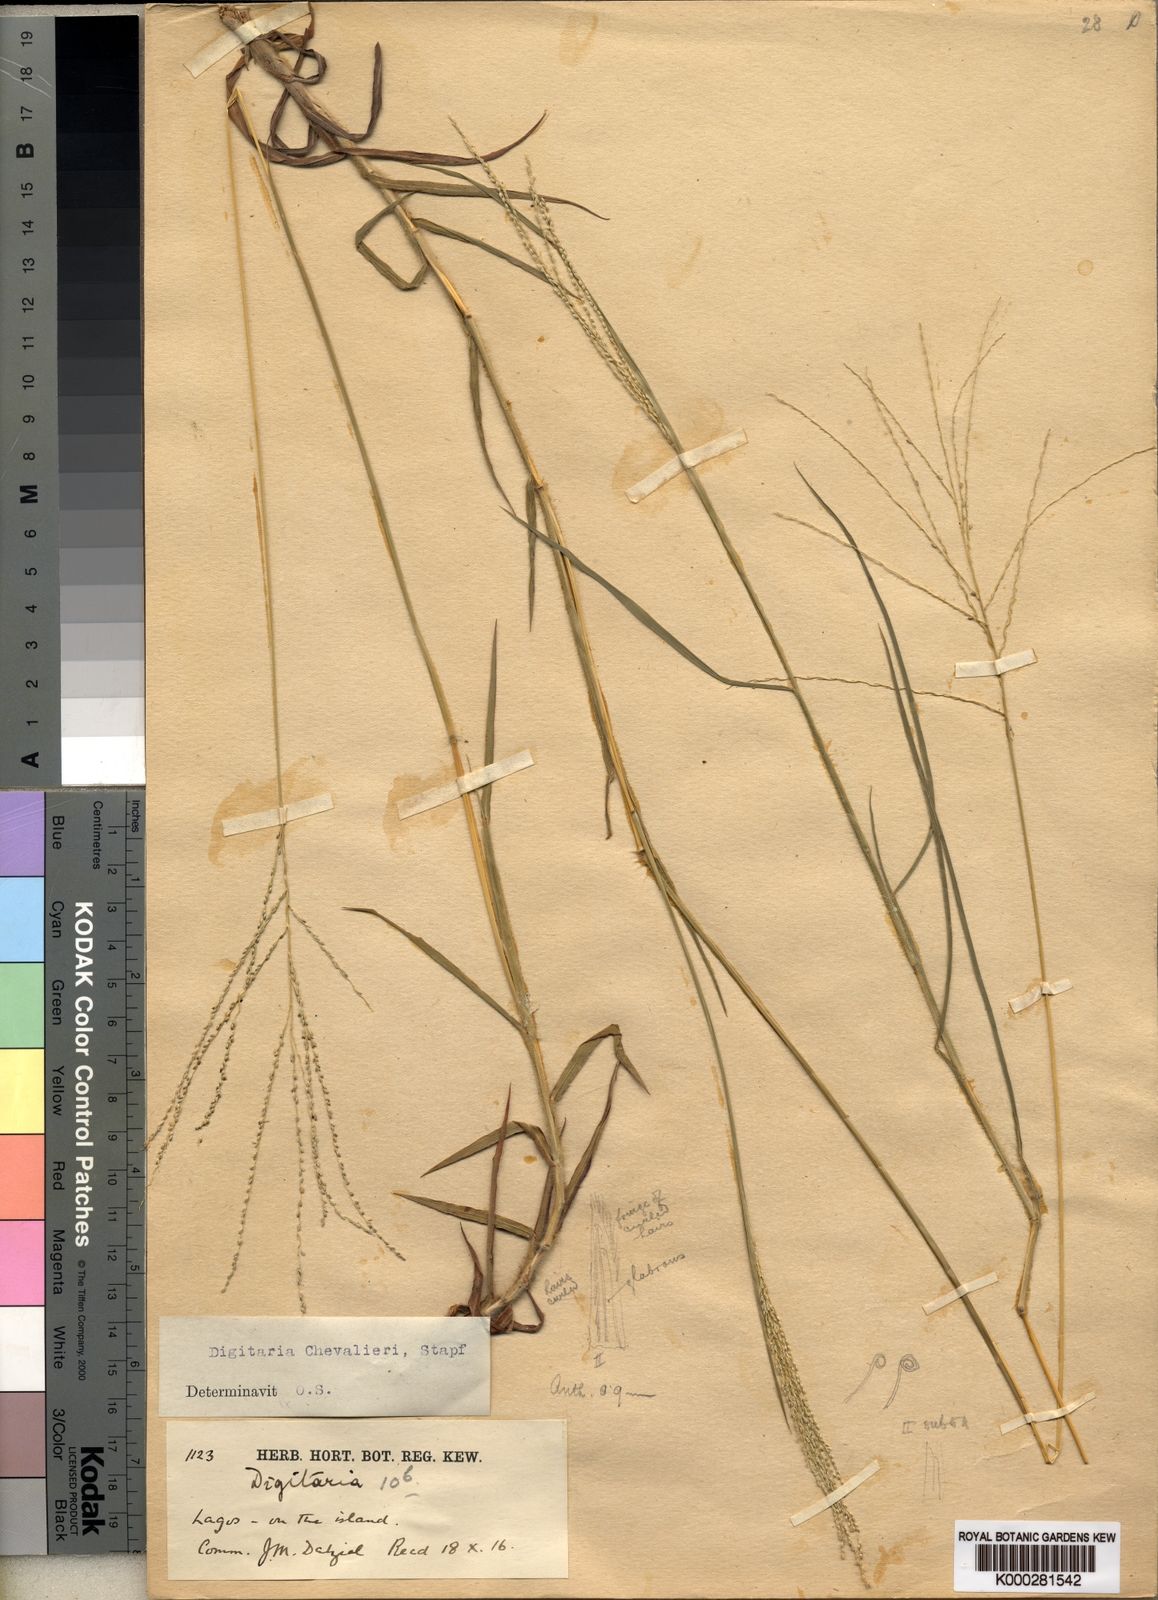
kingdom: Plantae
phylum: Tracheophyta
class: Liliopsida
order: Poales
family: Poaceae
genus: Digitaria
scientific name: Digitaria leptorhachis
